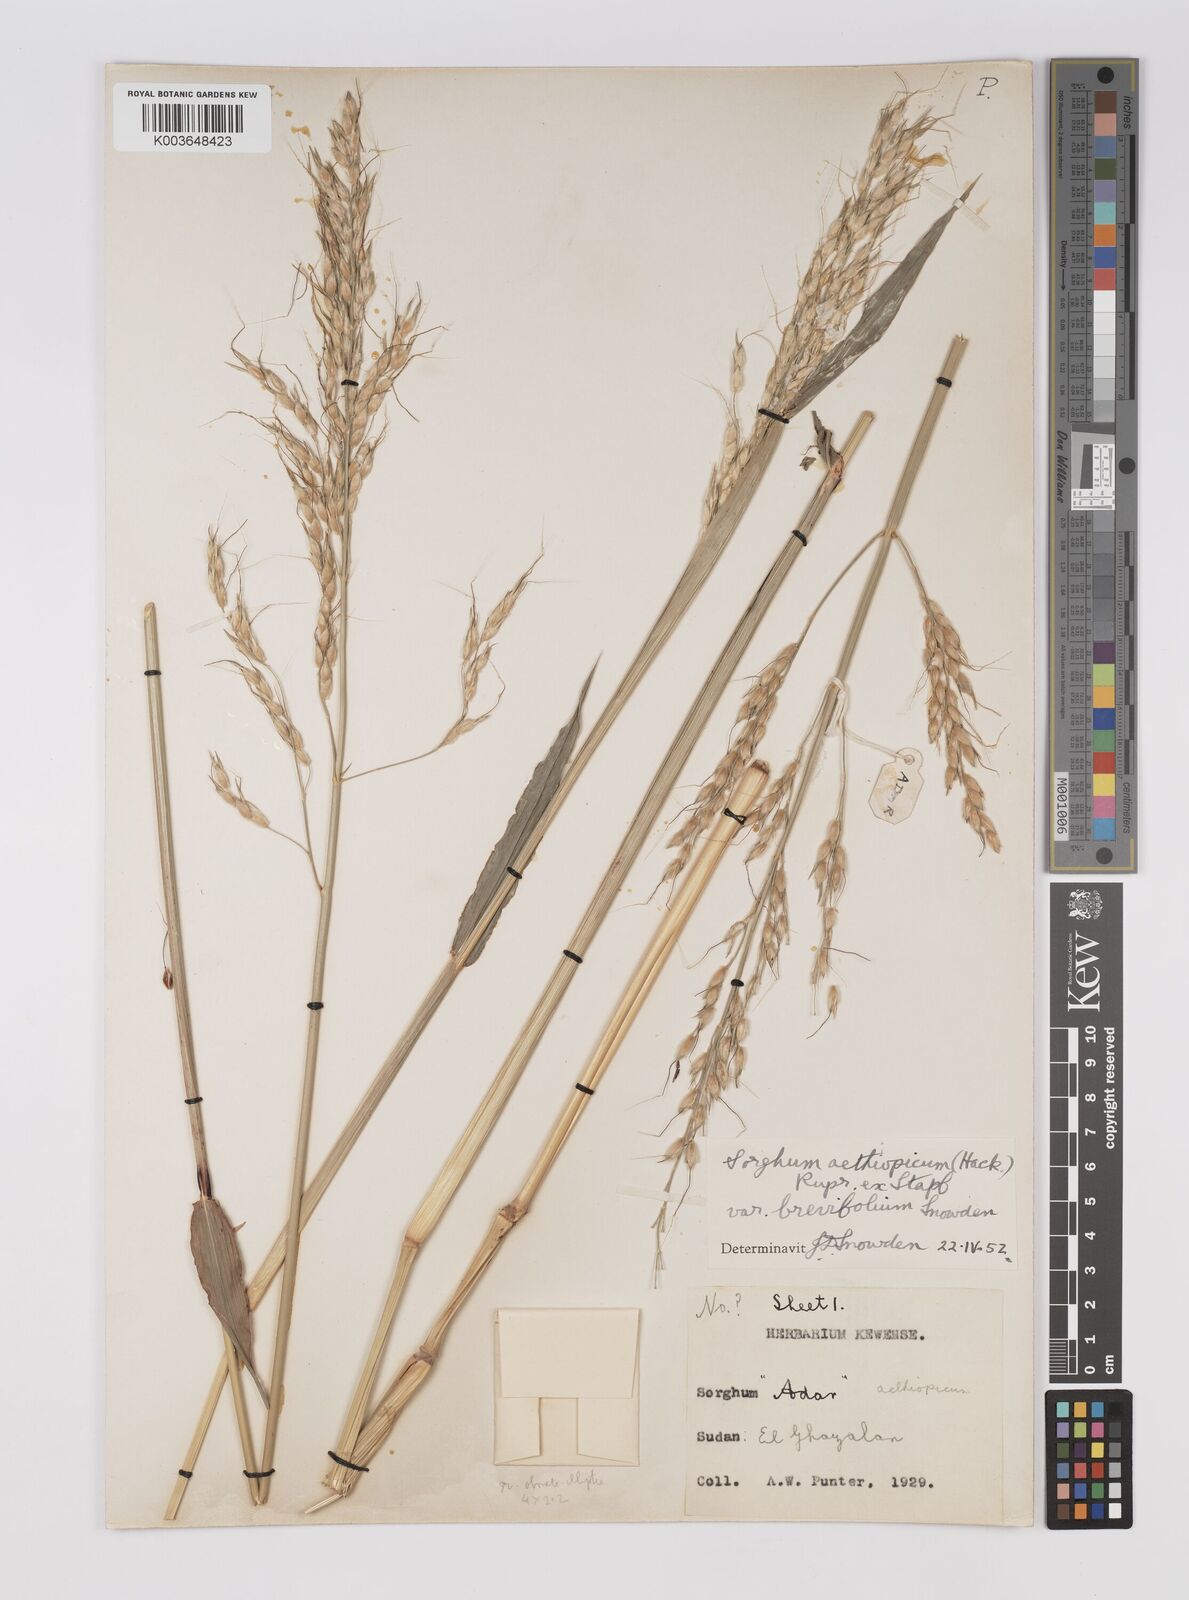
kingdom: Plantae
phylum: Tracheophyta
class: Liliopsida
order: Poales
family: Poaceae
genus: Sorghum
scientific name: Sorghum arundinaceum
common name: Sorghum
